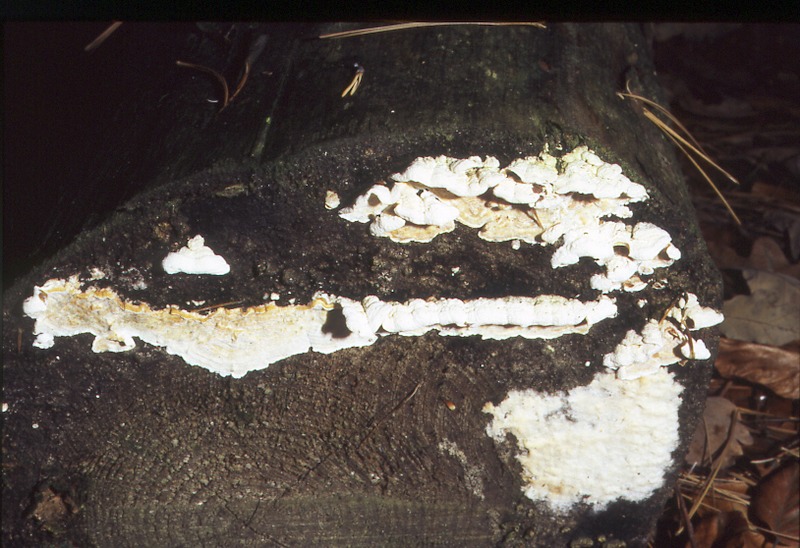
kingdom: Fungi
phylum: Basidiomycota
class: Agaricomycetes
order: Polyporales
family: Incrustoporiaceae
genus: Skeletocutis
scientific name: Skeletocutis amorpha
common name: Rusty crust
